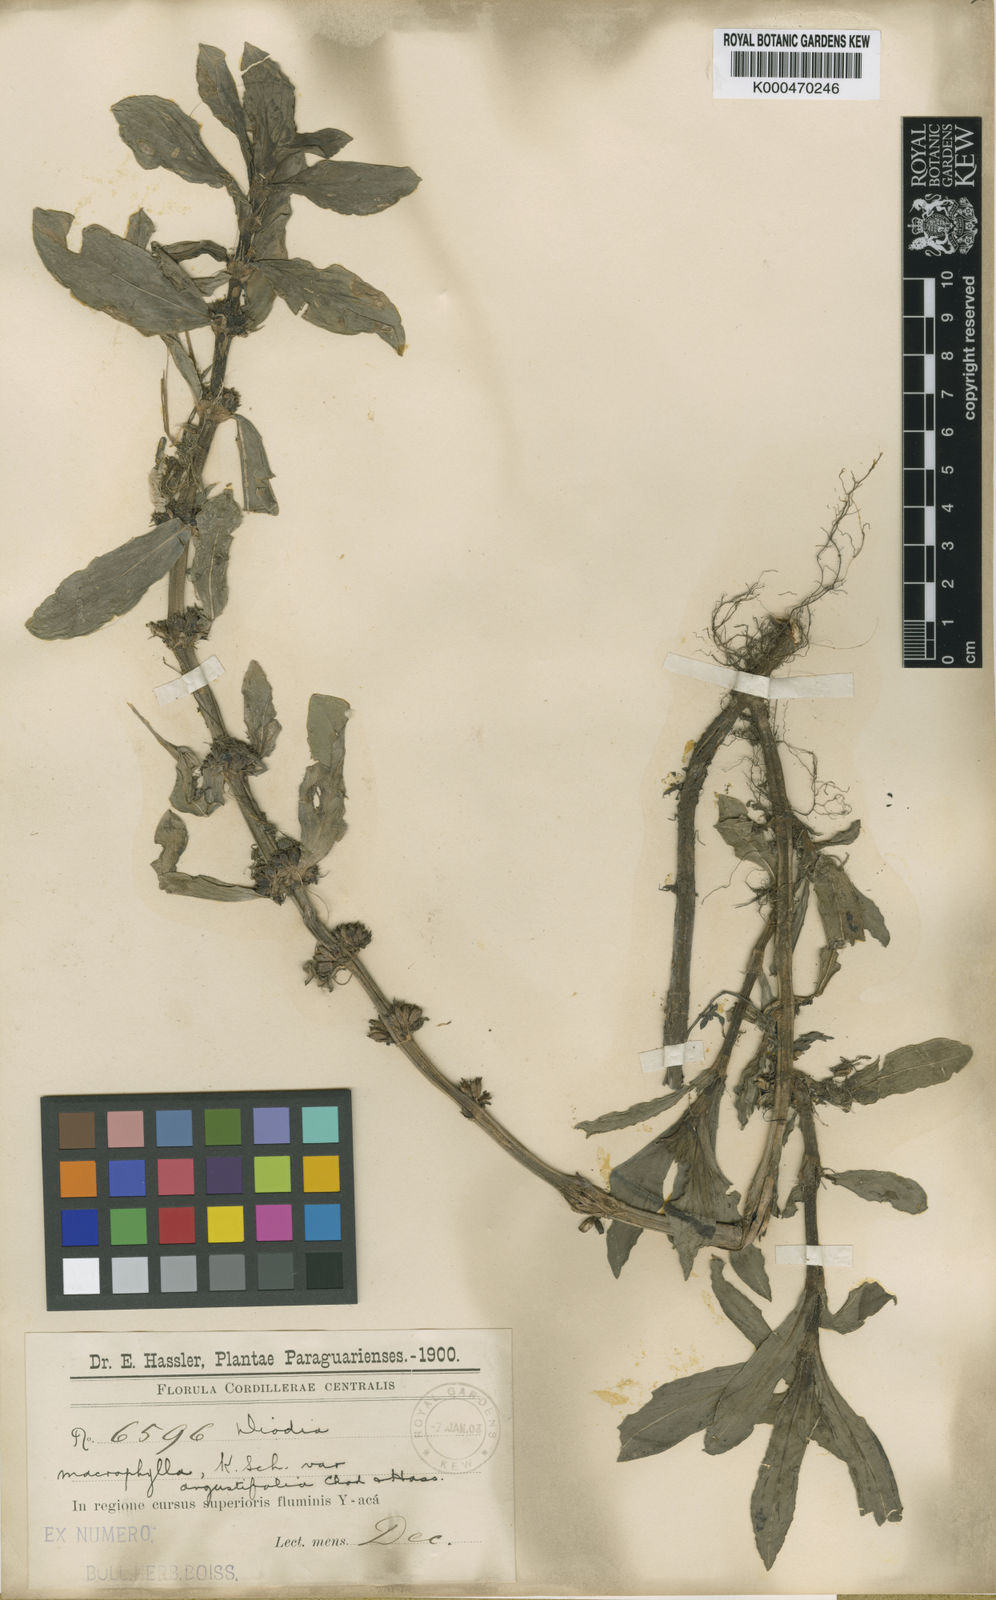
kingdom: Plantae
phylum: Tracheophyta
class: Magnoliopsida
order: Gentianales
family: Rubiaceae
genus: Spermacoce
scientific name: Spermacoce pulchristipula
